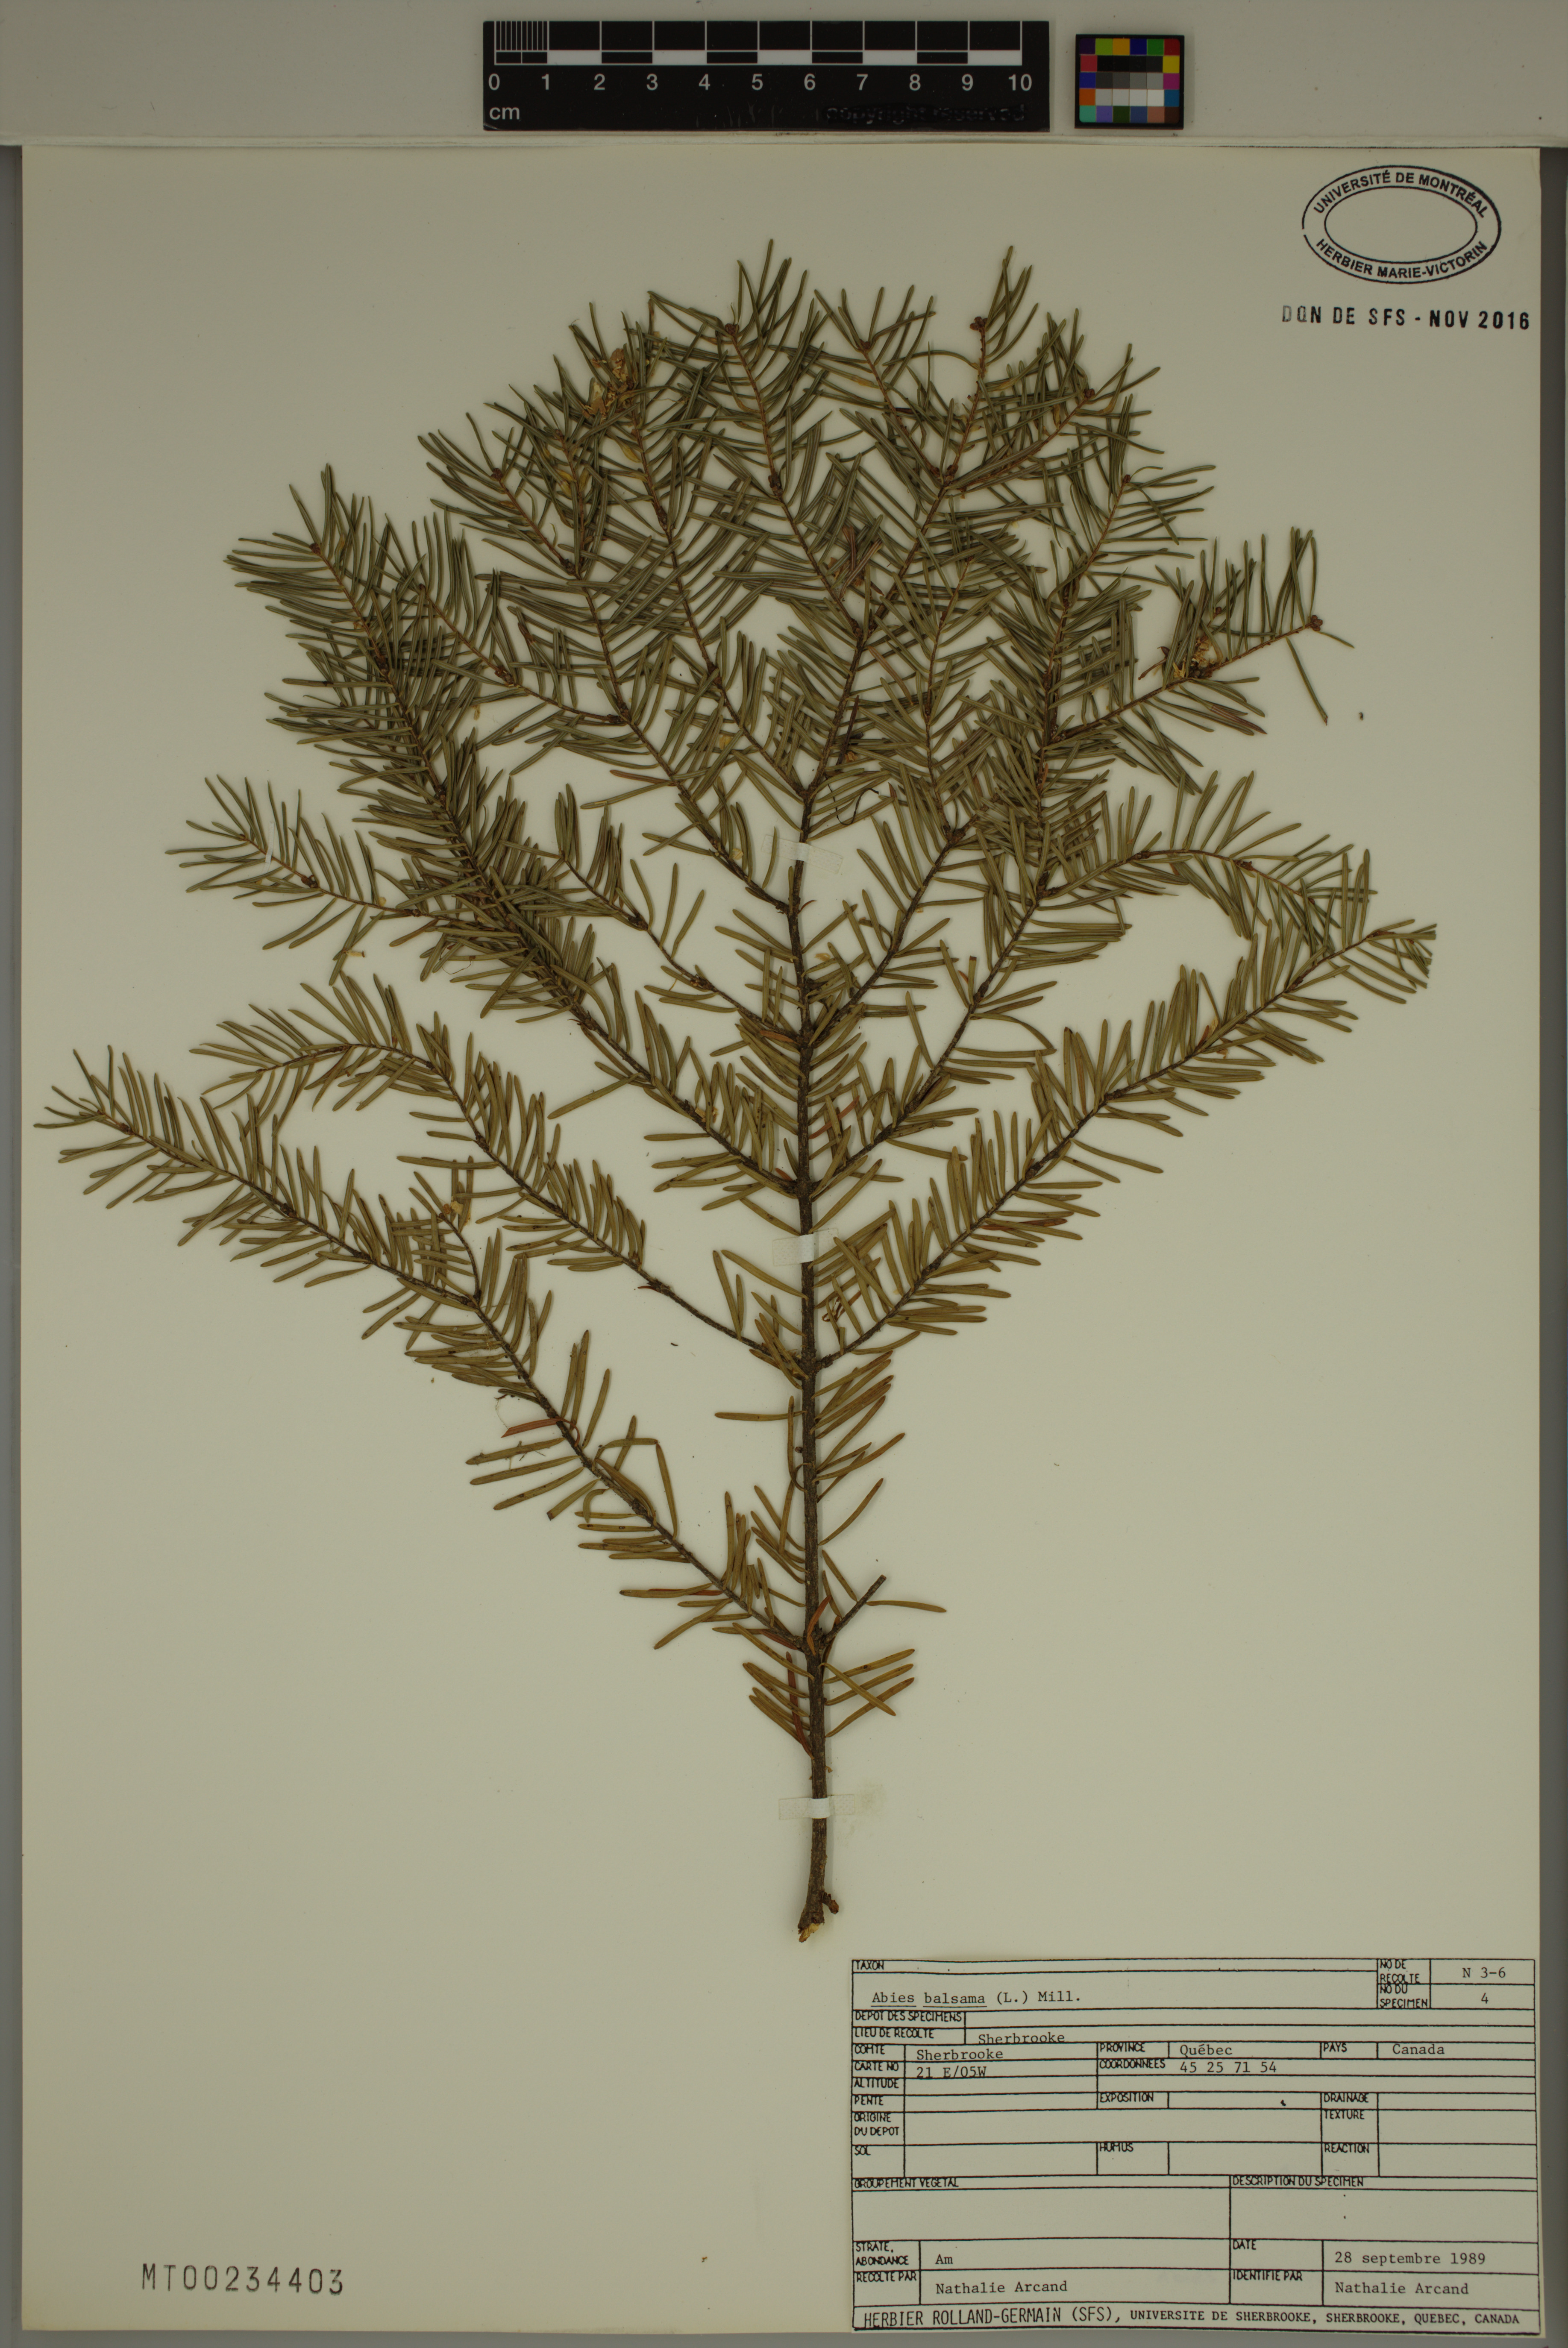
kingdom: Plantae
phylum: Tracheophyta
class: Pinopsida
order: Pinales
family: Pinaceae
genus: Abies
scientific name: Abies balsamea
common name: Balsam fir
